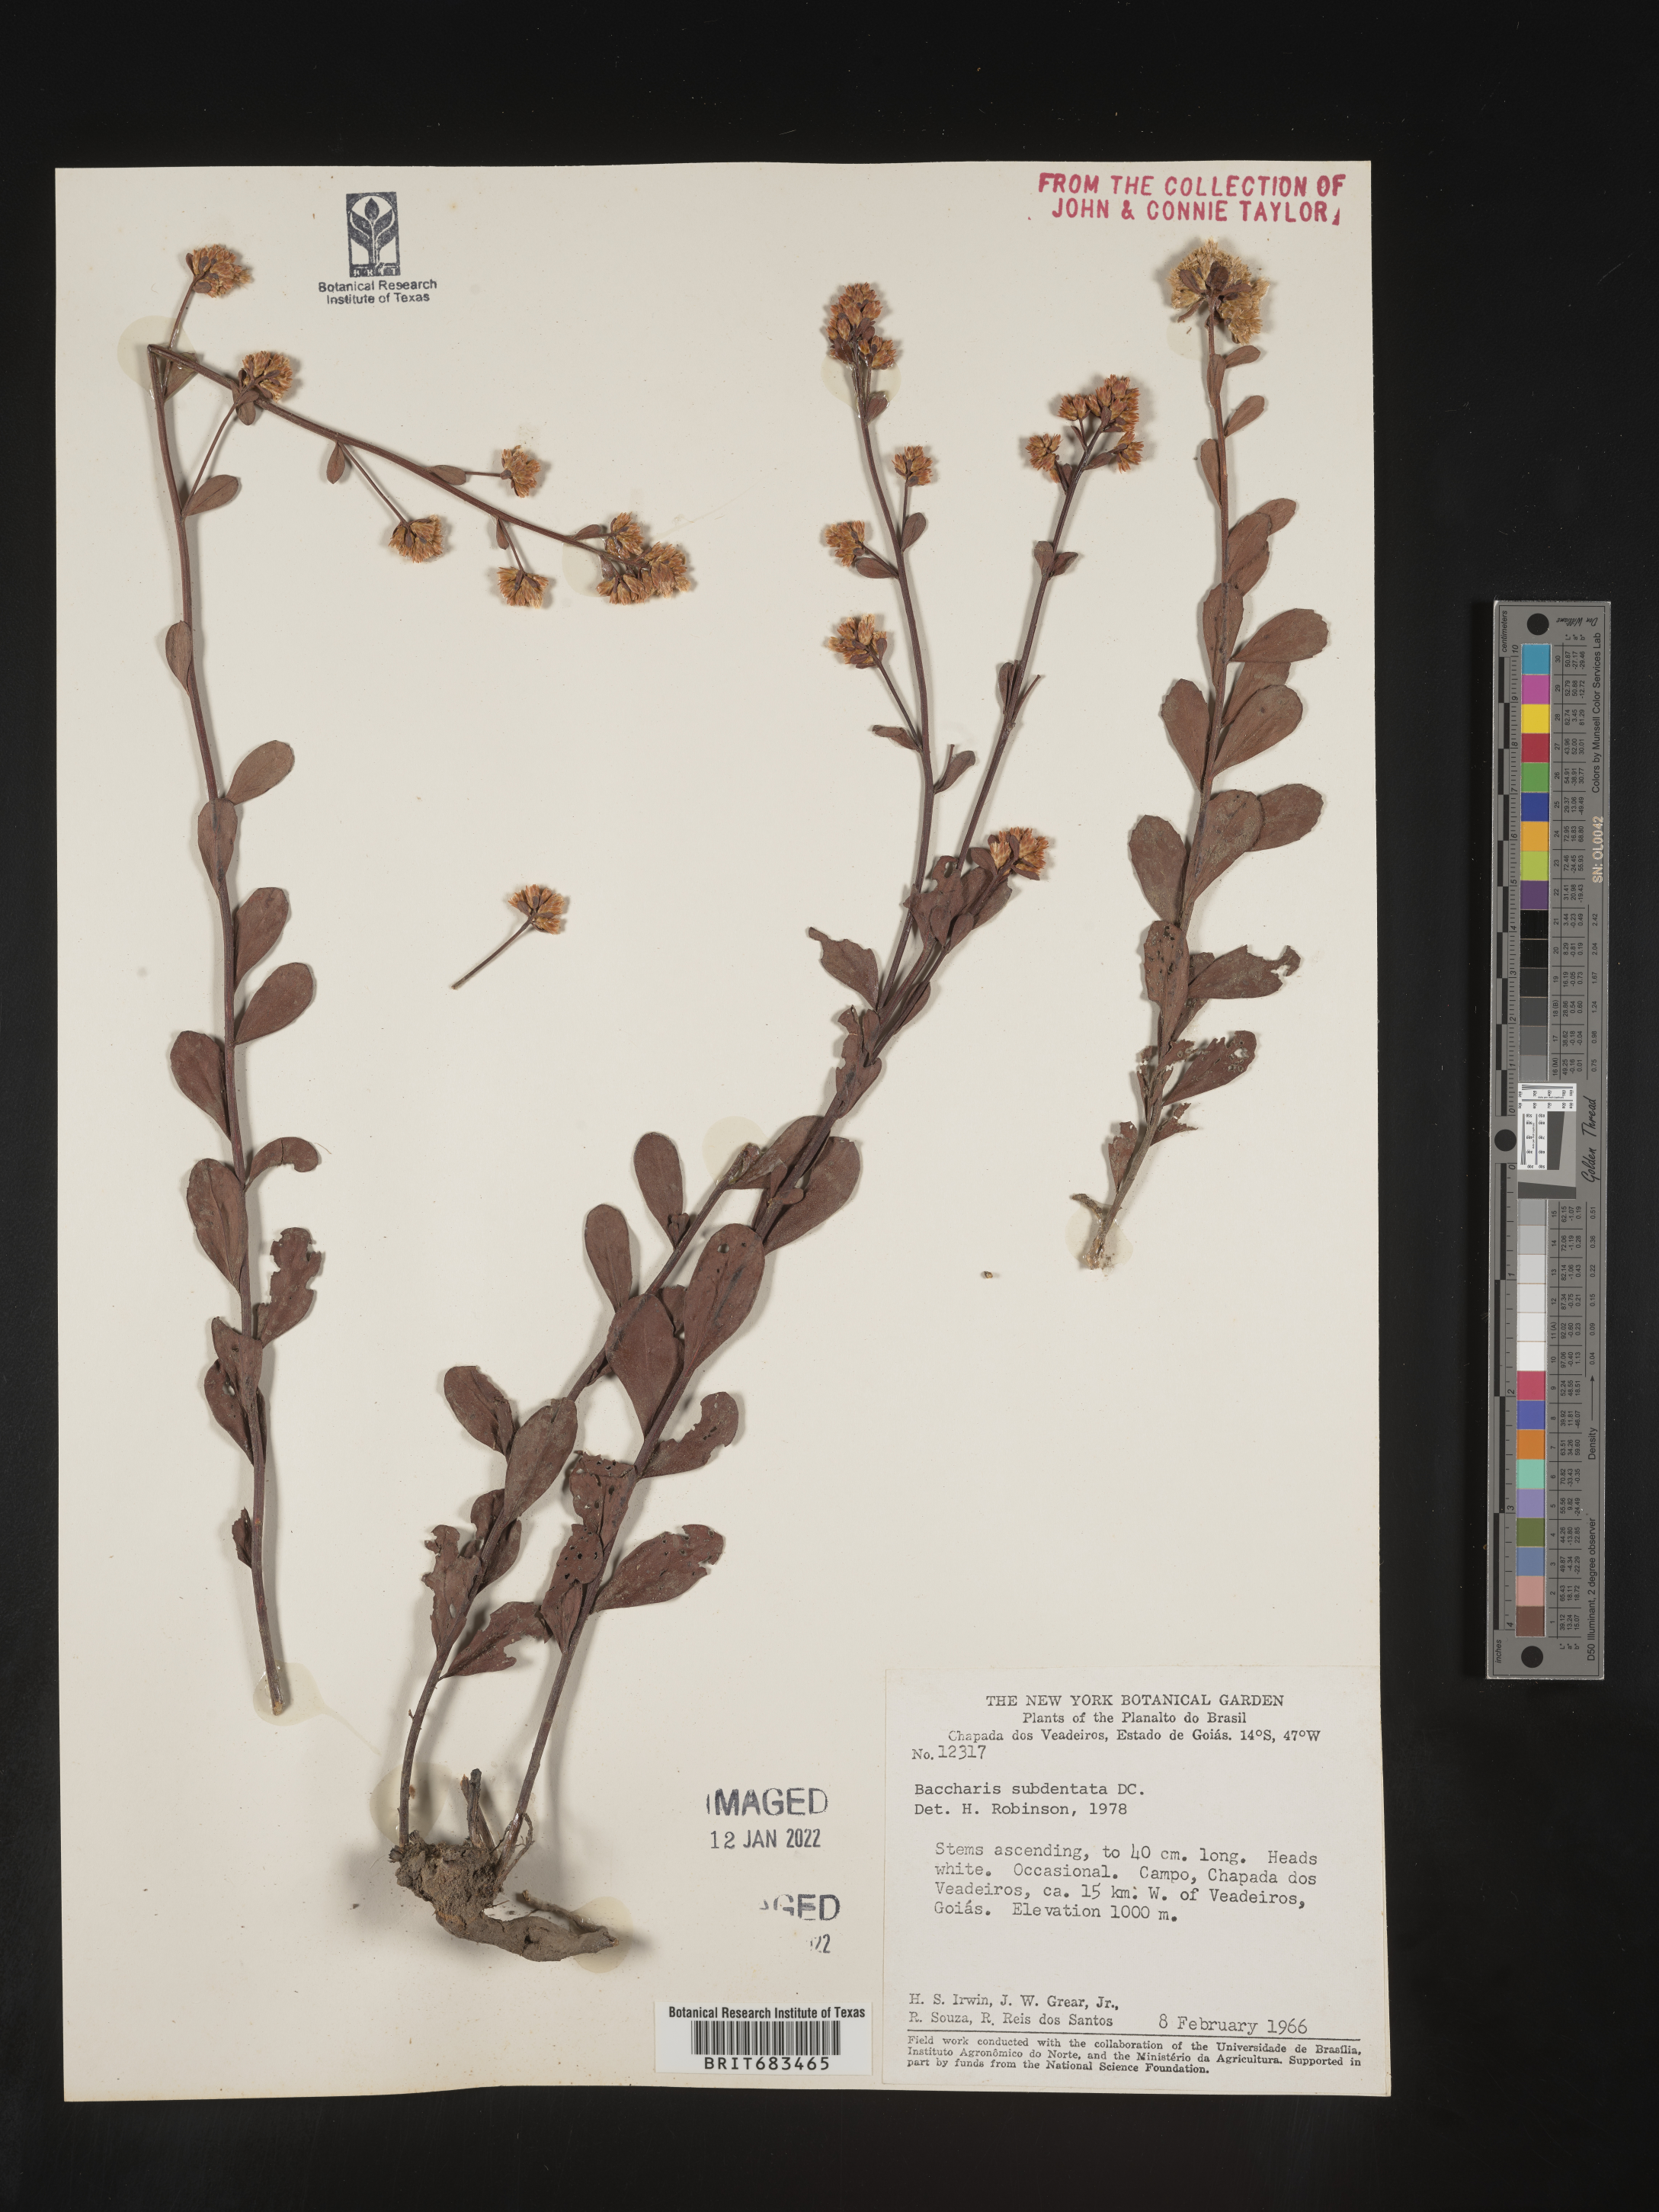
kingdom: Plantae
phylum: Tracheophyta
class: Magnoliopsida
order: Asterales
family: Asteraceae
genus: Baccharis
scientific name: Baccharis
